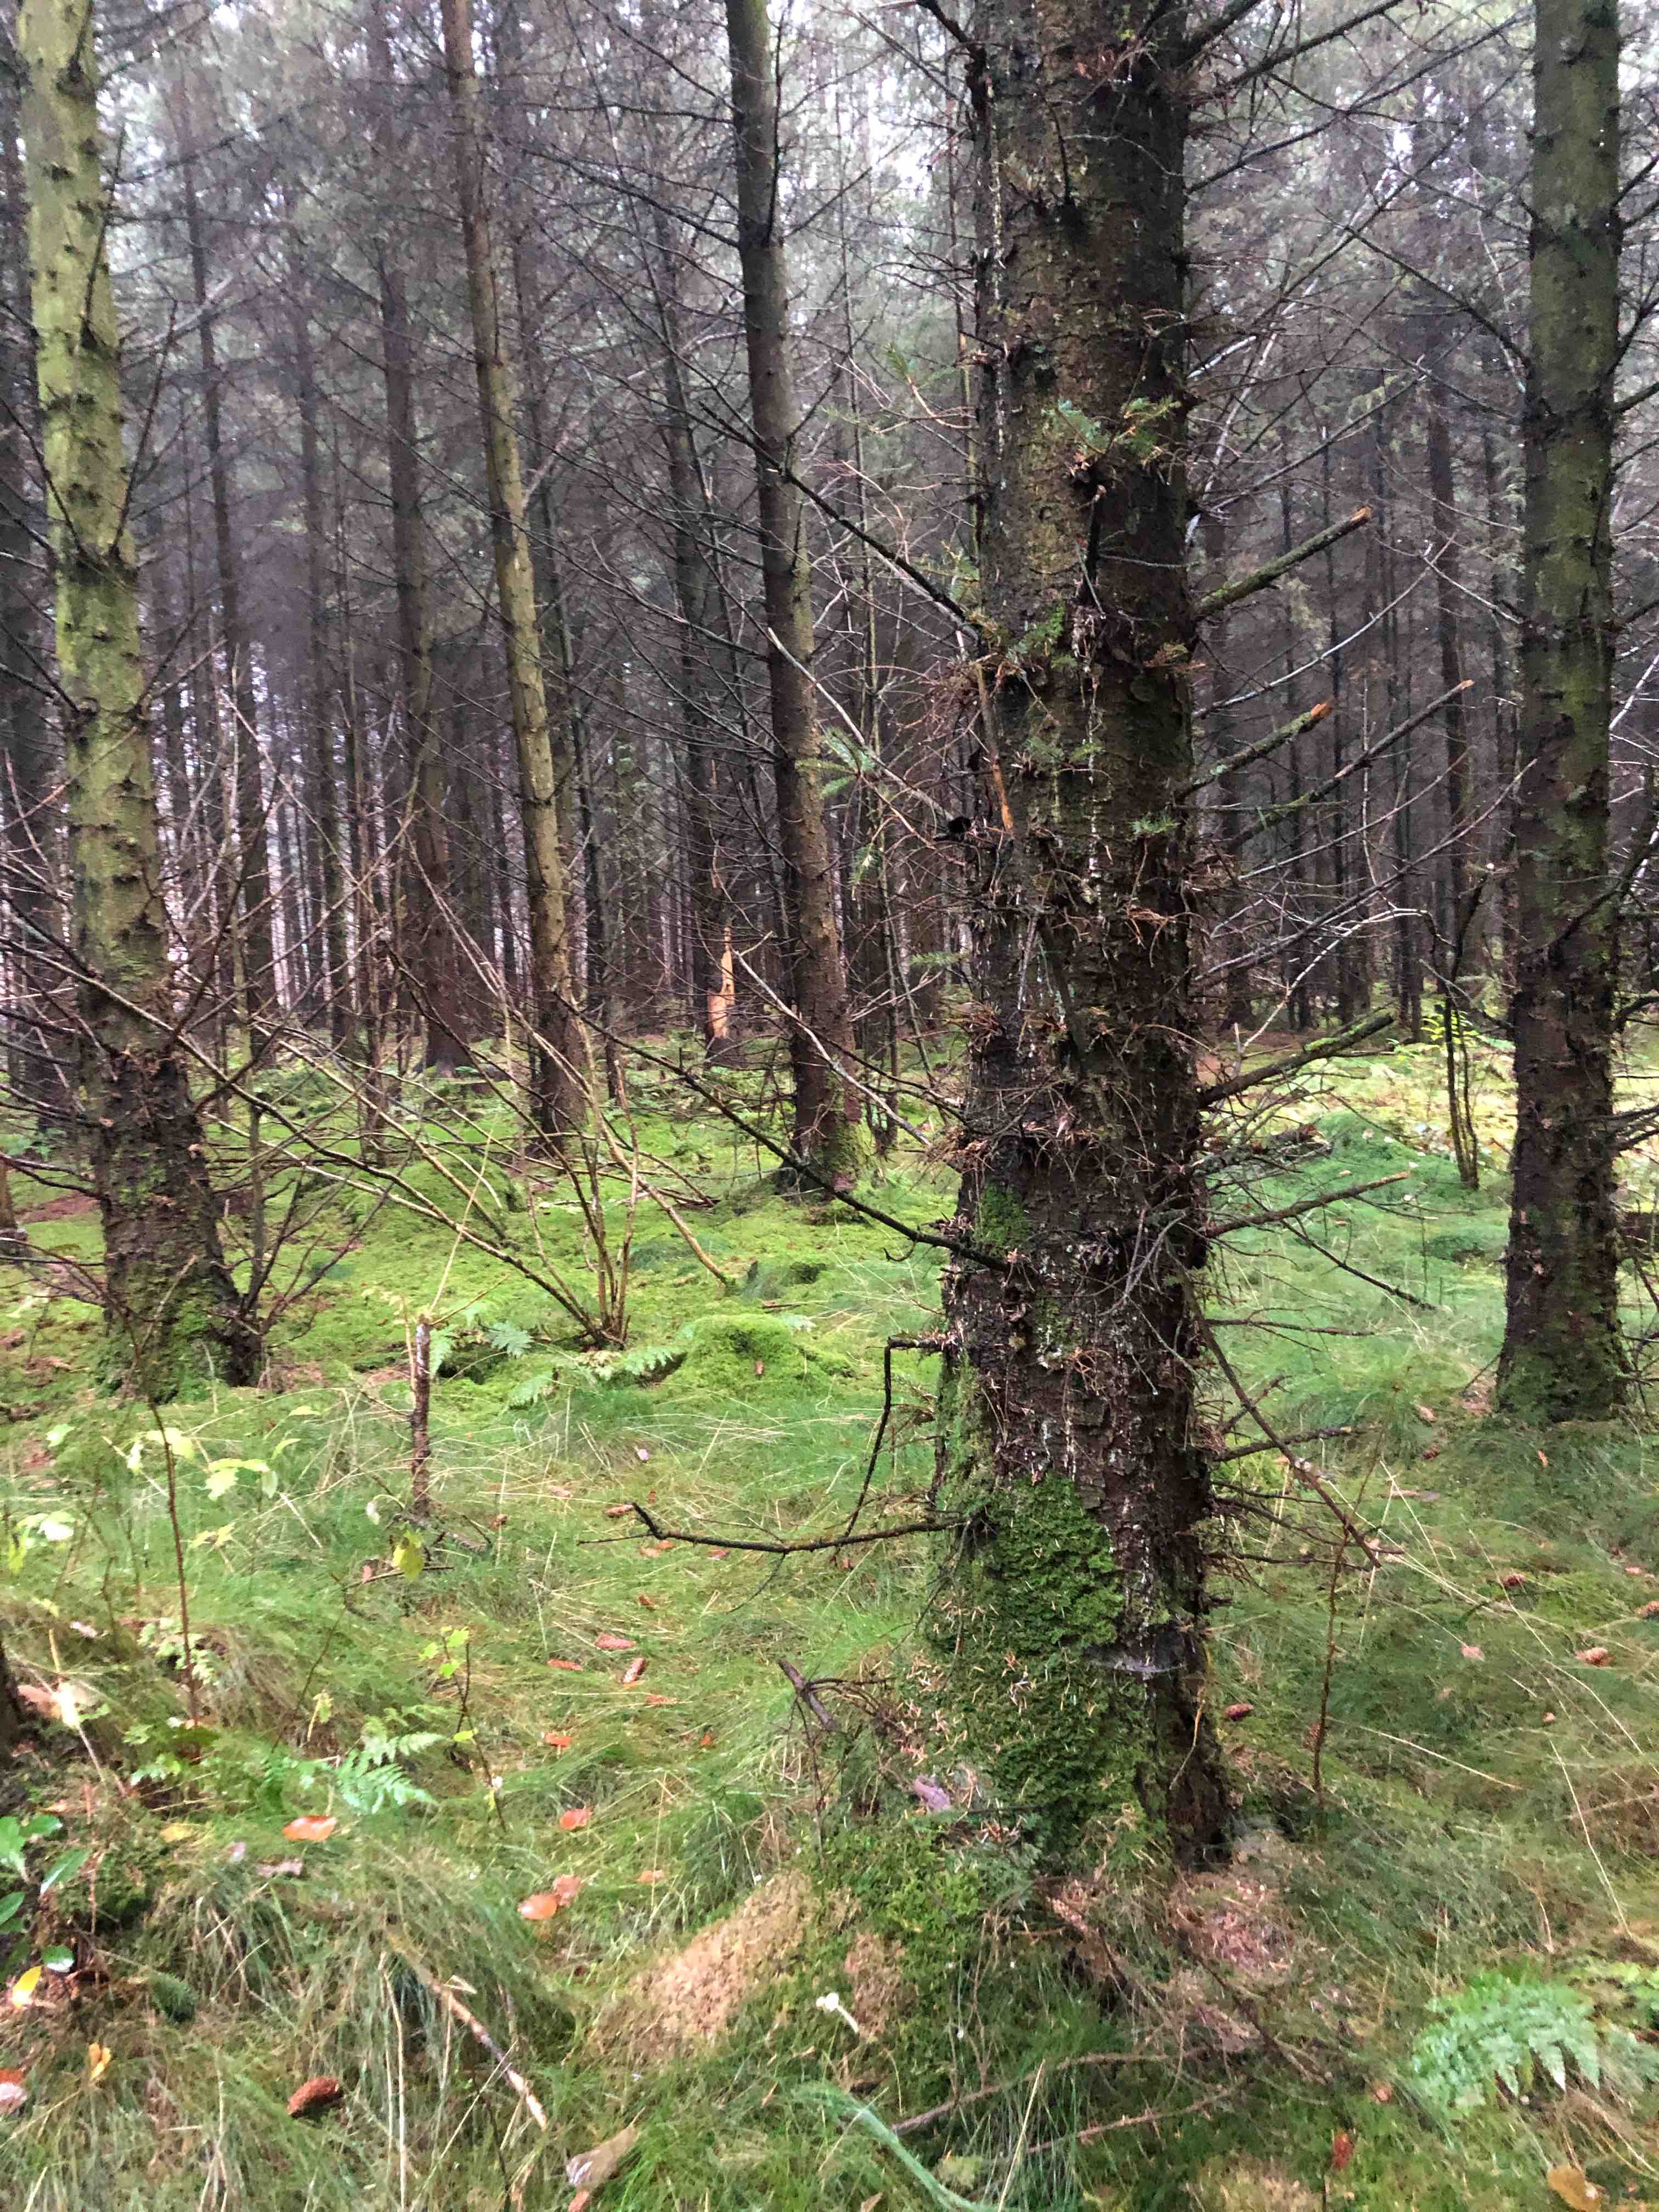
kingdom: Fungi
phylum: Basidiomycota
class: Agaricomycetes
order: Agaricales
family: Mycenaceae
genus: Mycena
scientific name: Mycena epipterygia
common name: gulstokket huesvamp
